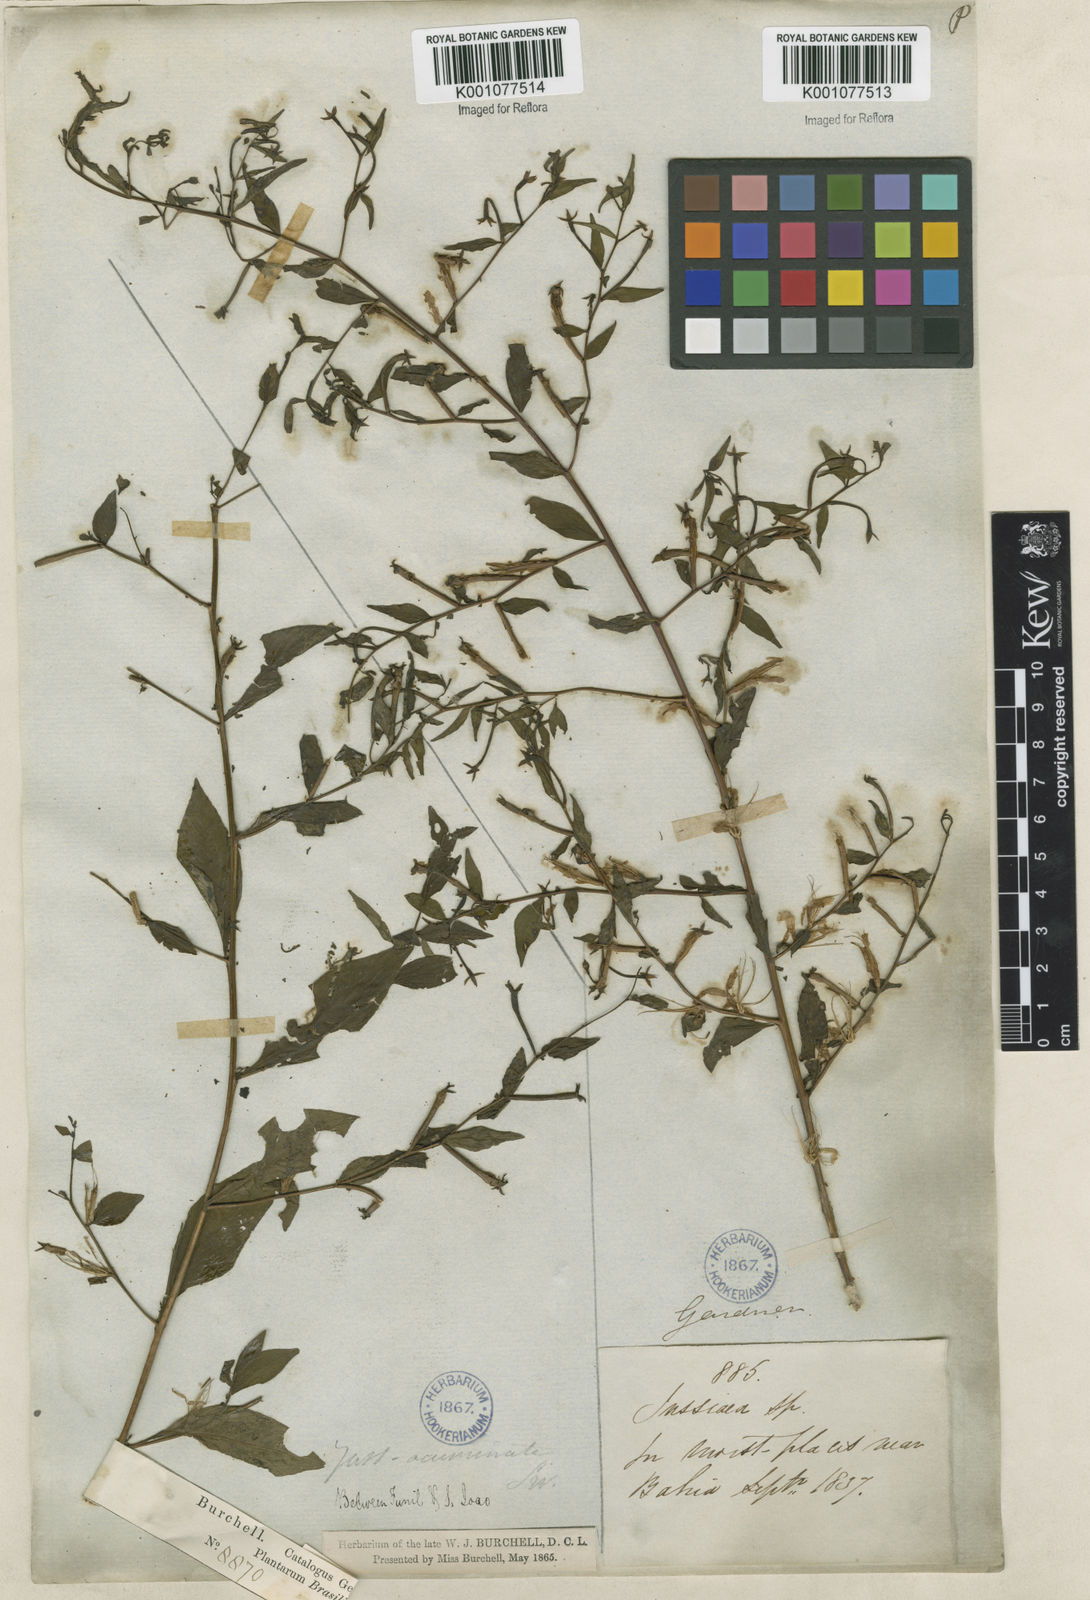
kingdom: Plantae
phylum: Tracheophyta
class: Magnoliopsida
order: Myrtales
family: Onagraceae
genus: Ludwigia
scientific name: Ludwigia hyssopifolia
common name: Linear leaf water primrose
